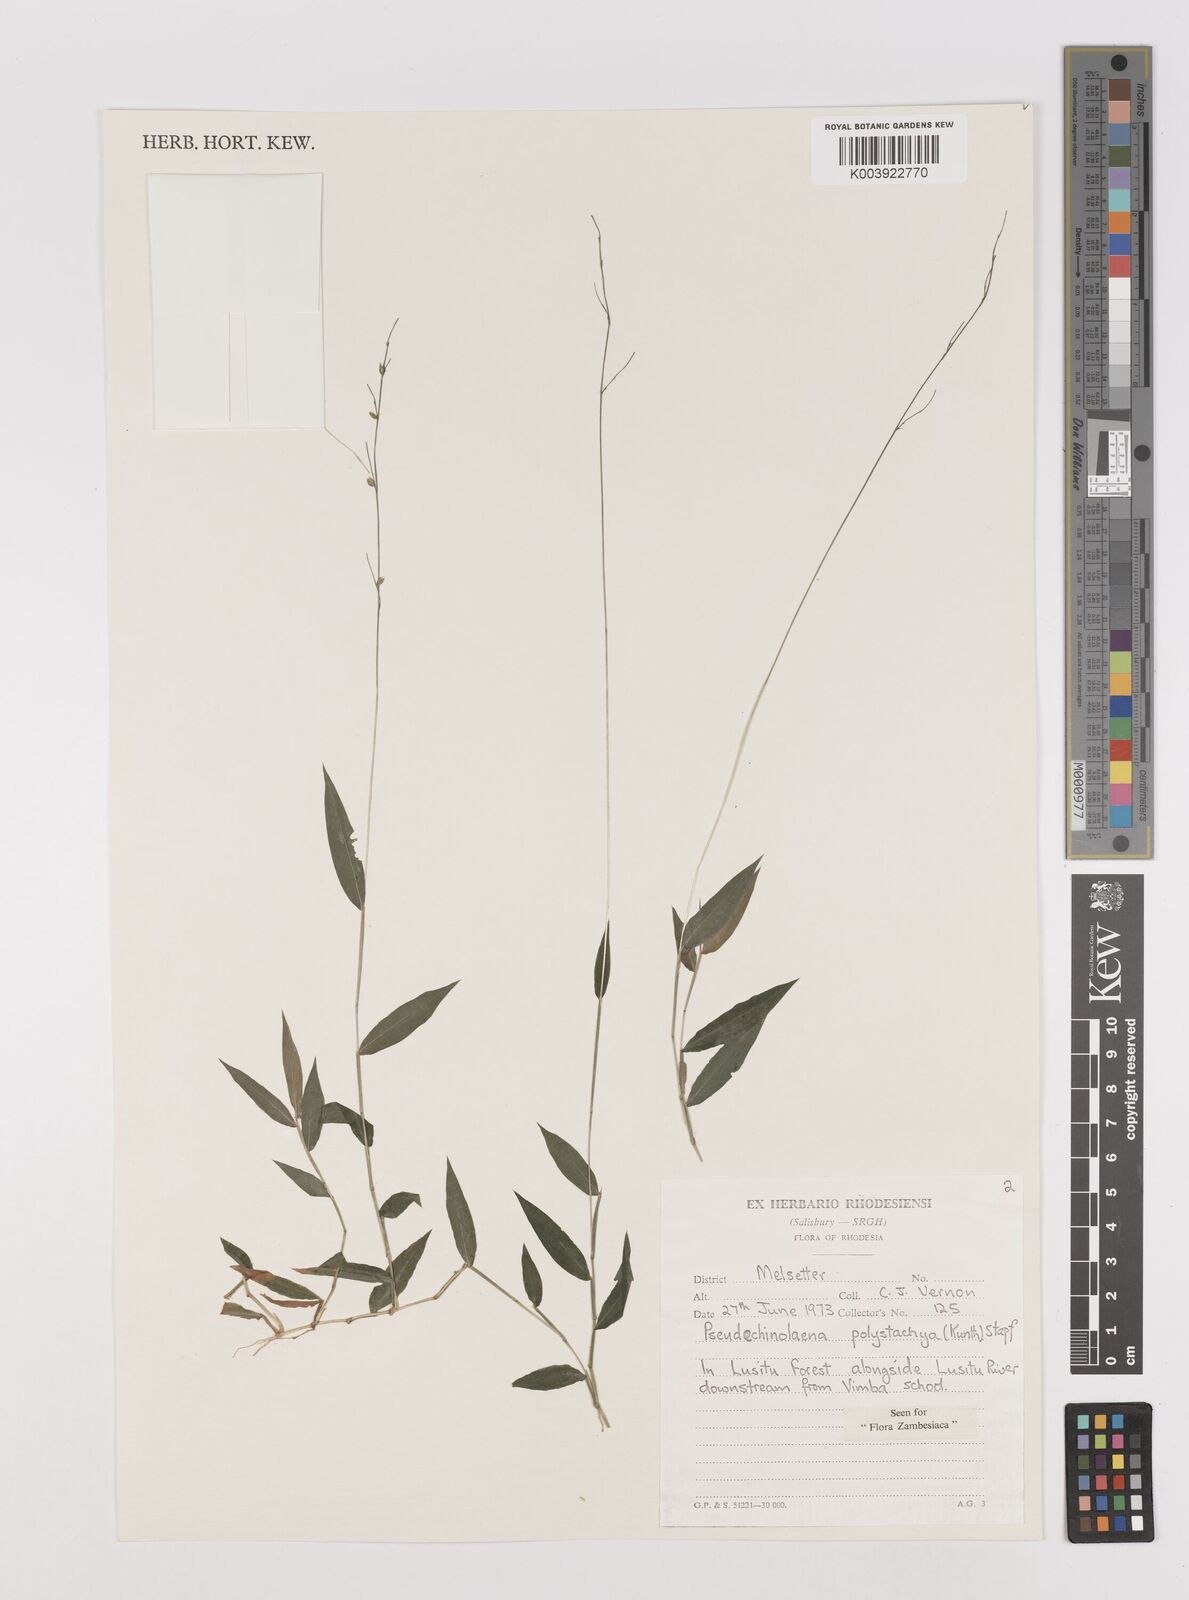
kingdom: Plantae
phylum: Tracheophyta
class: Liliopsida
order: Poales
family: Poaceae
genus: Pseudechinolaena
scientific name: Pseudechinolaena polystachya
